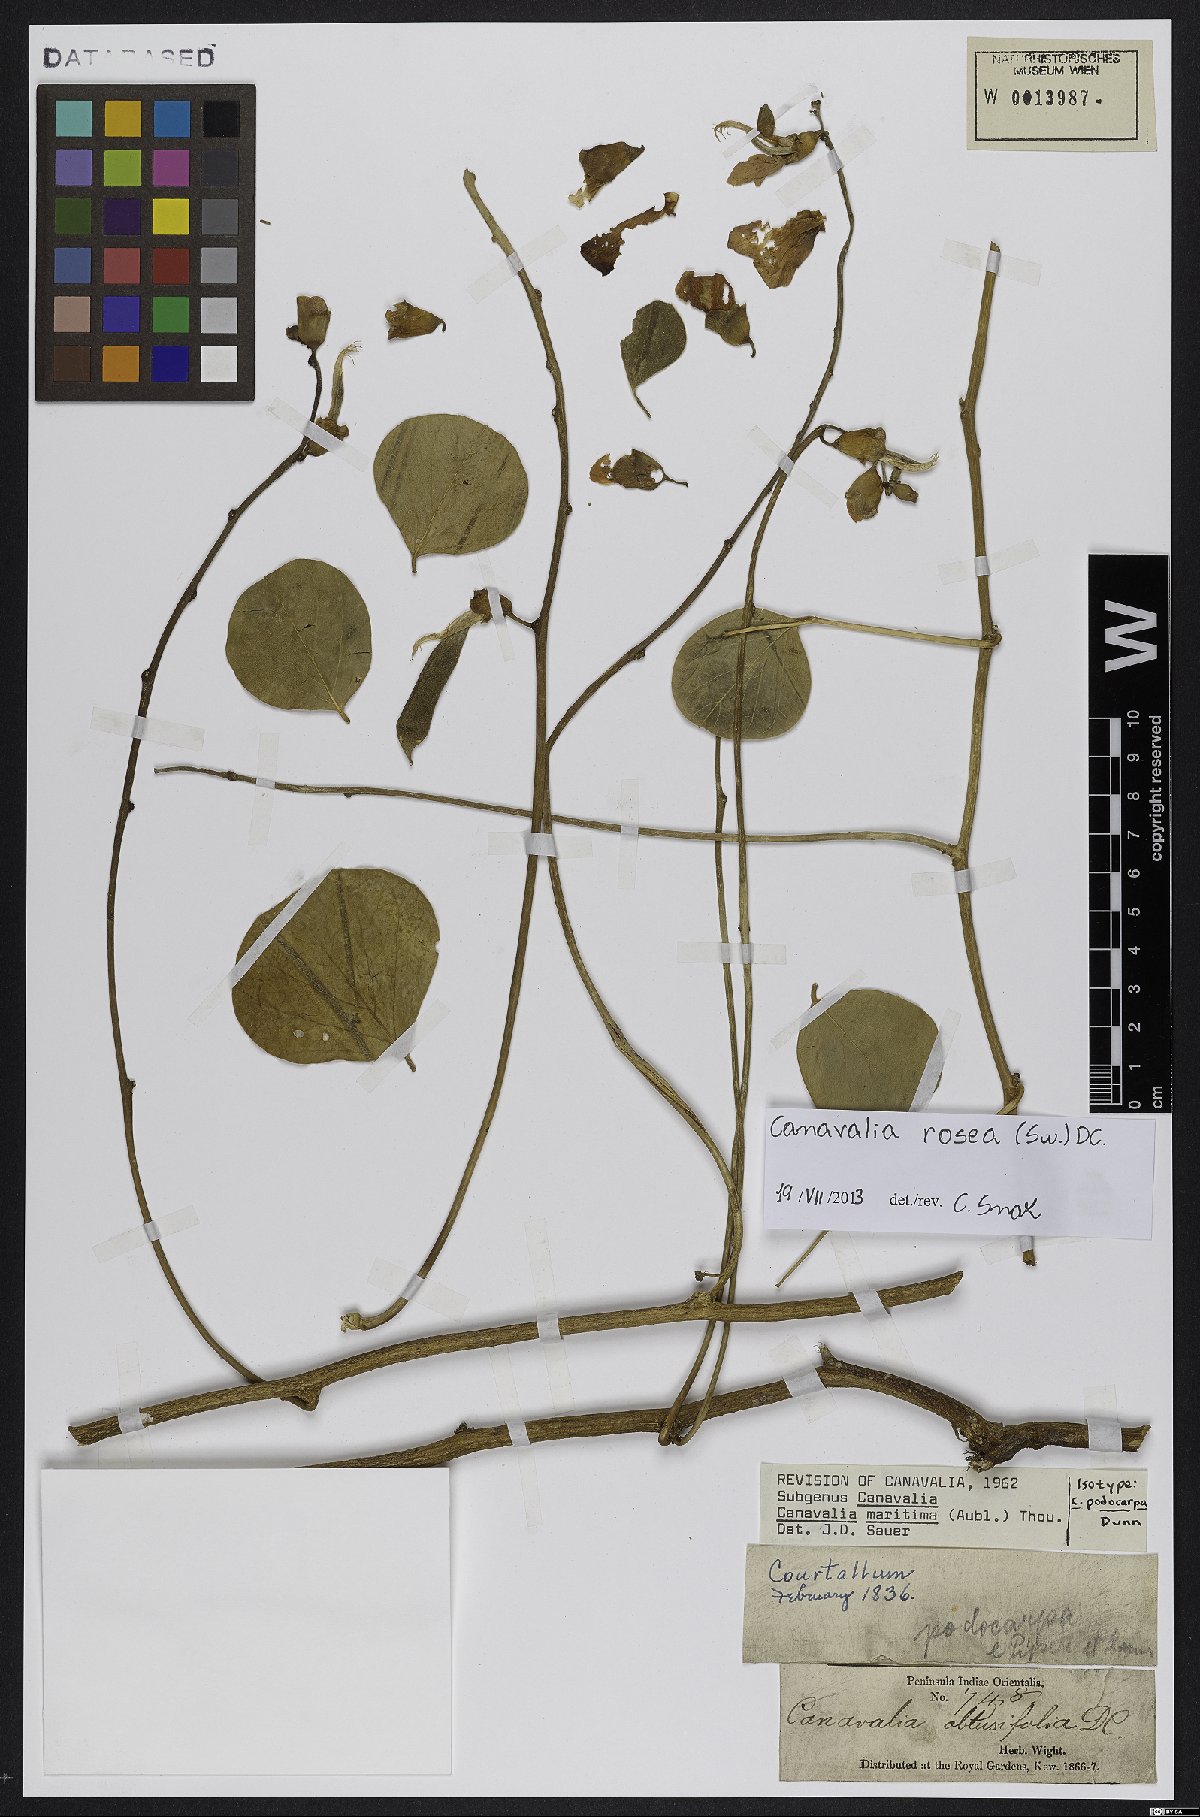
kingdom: Plantae
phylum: Tracheophyta
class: Magnoliopsida
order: Fabales
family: Fabaceae
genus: Canavalia
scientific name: Canavalia rosea
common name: Beach-bean
